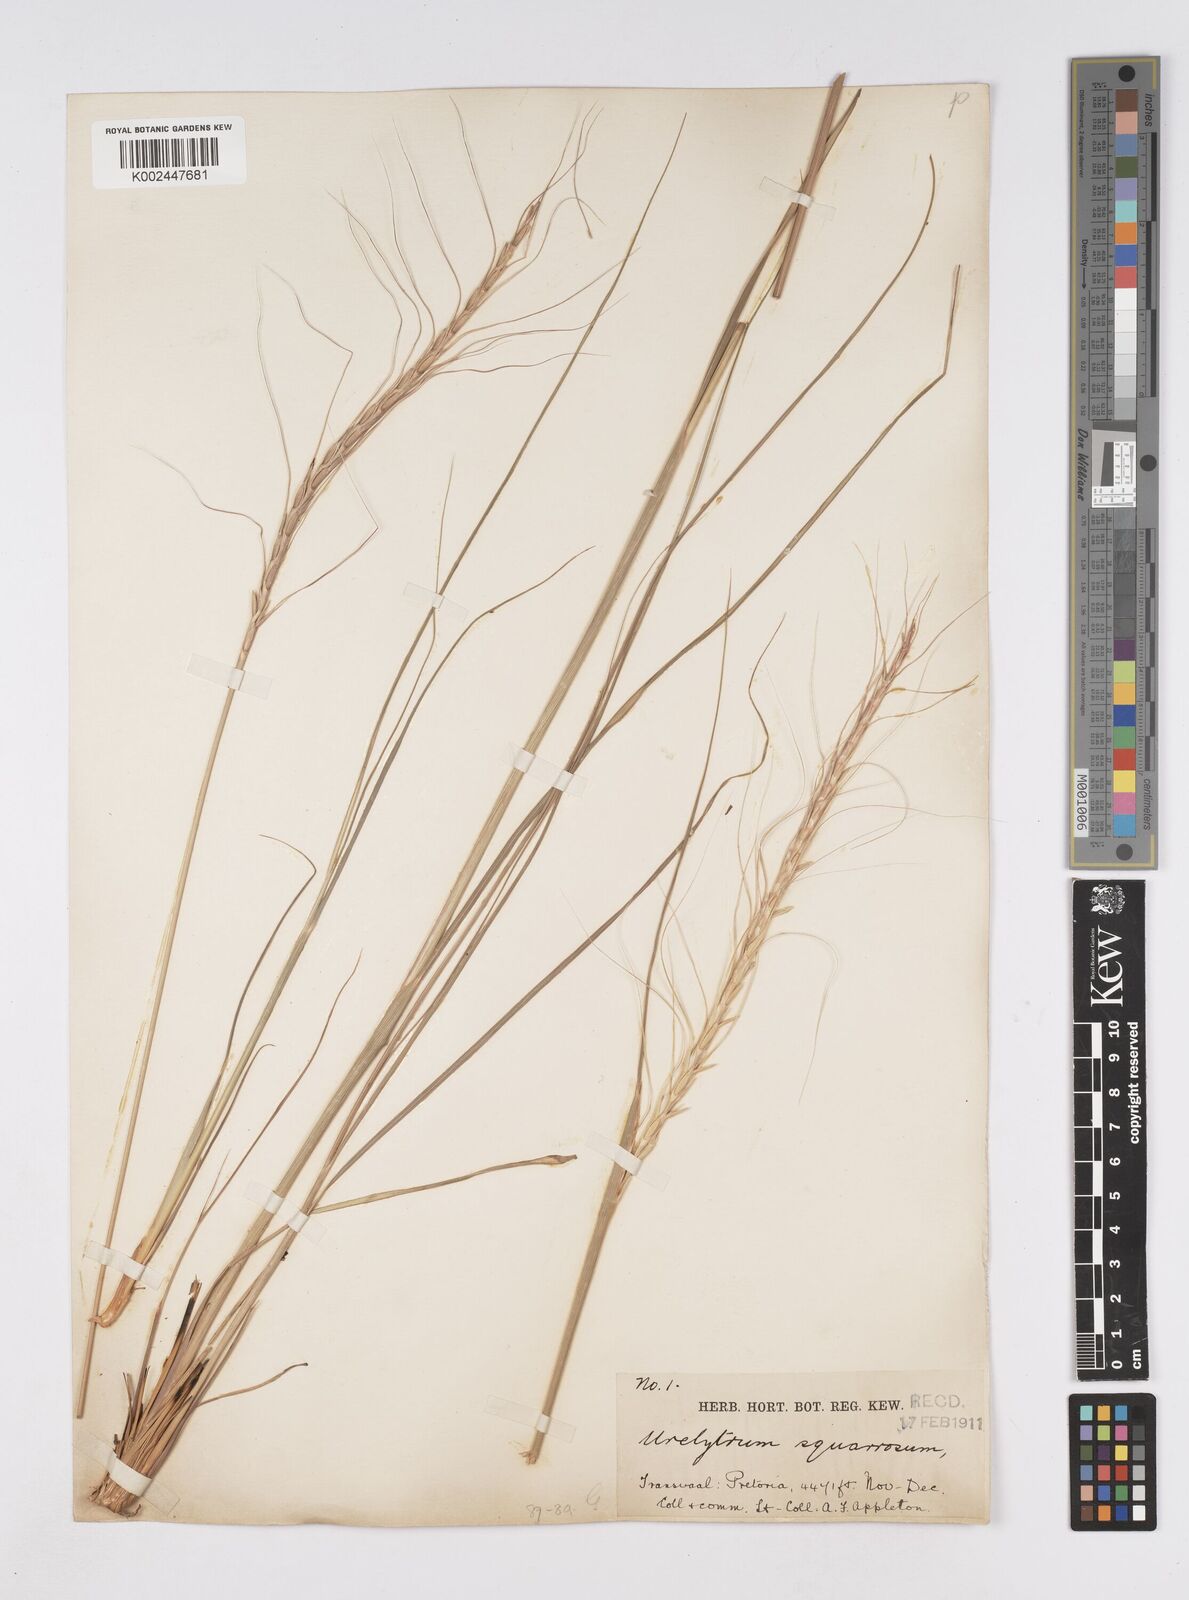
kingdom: Plantae
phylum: Tracheophyta
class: Liliopsida
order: Poales
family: Poaceae
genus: Urelytrum
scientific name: Urelytrum agropyroides
